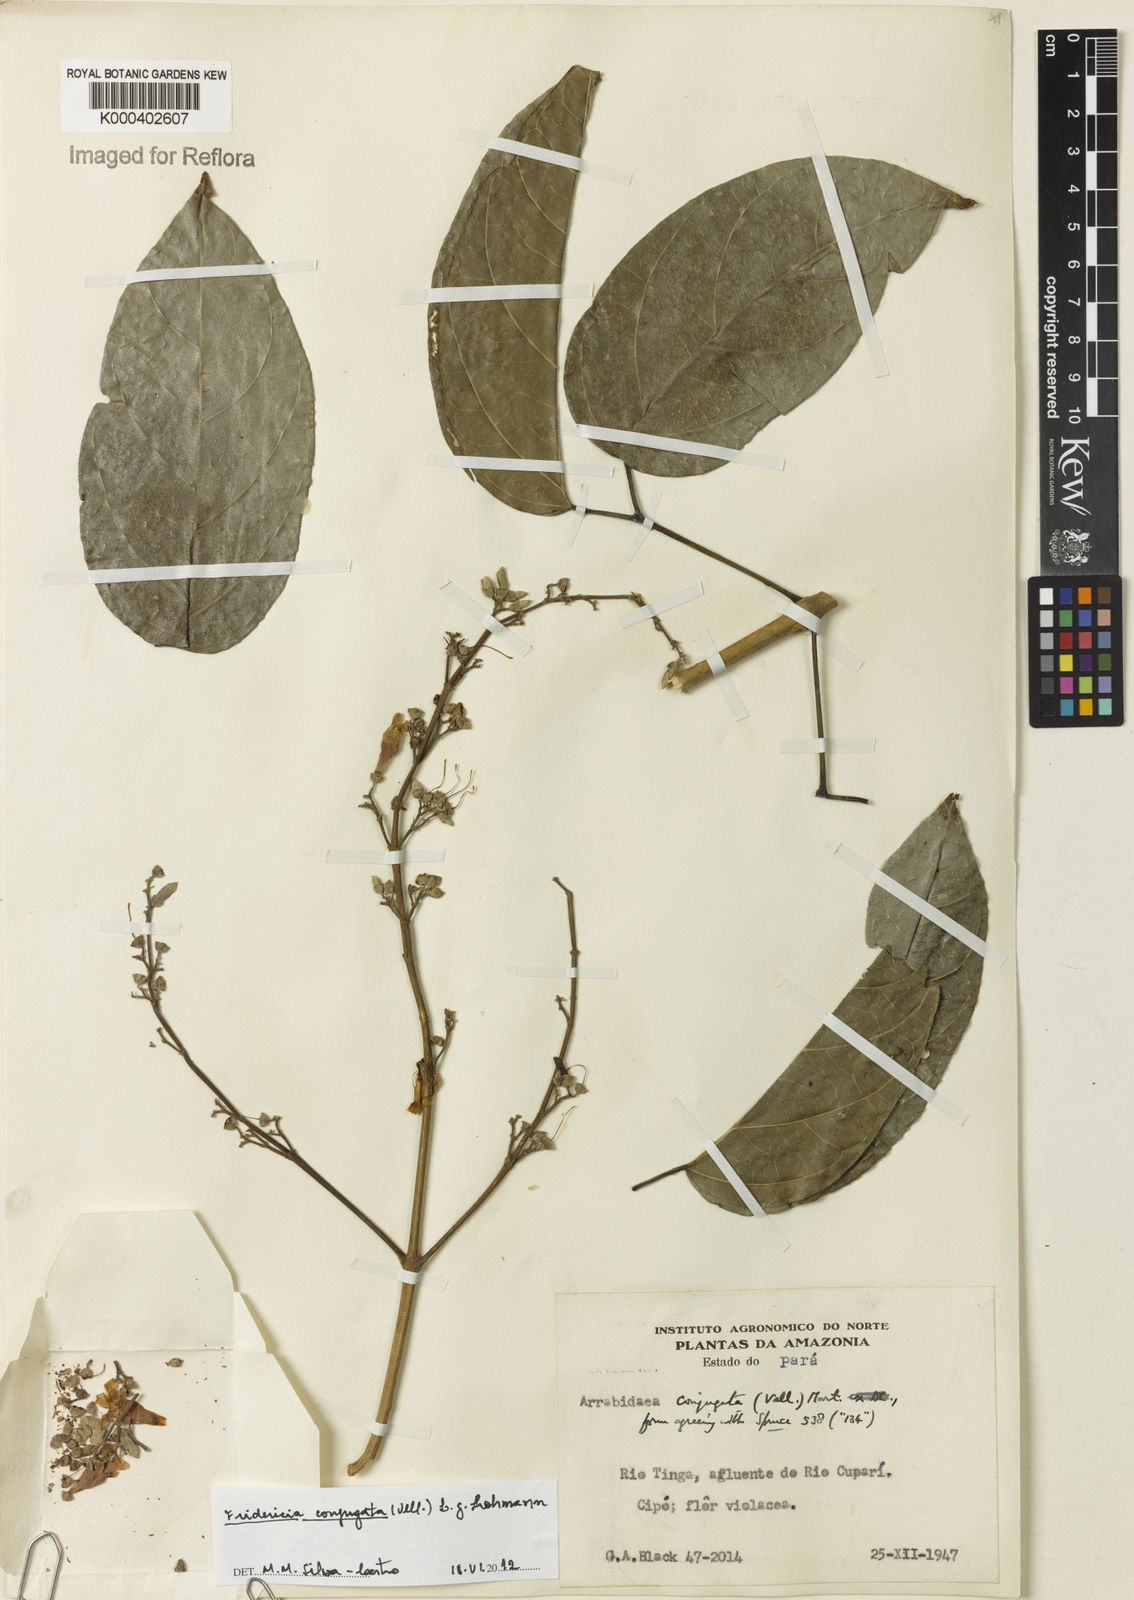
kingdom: Plantae
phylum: Tracheophyta
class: Magnoliopsida
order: Lamiales
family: Bignoniaceae
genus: Fridericia
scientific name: Fridericia conjugata
